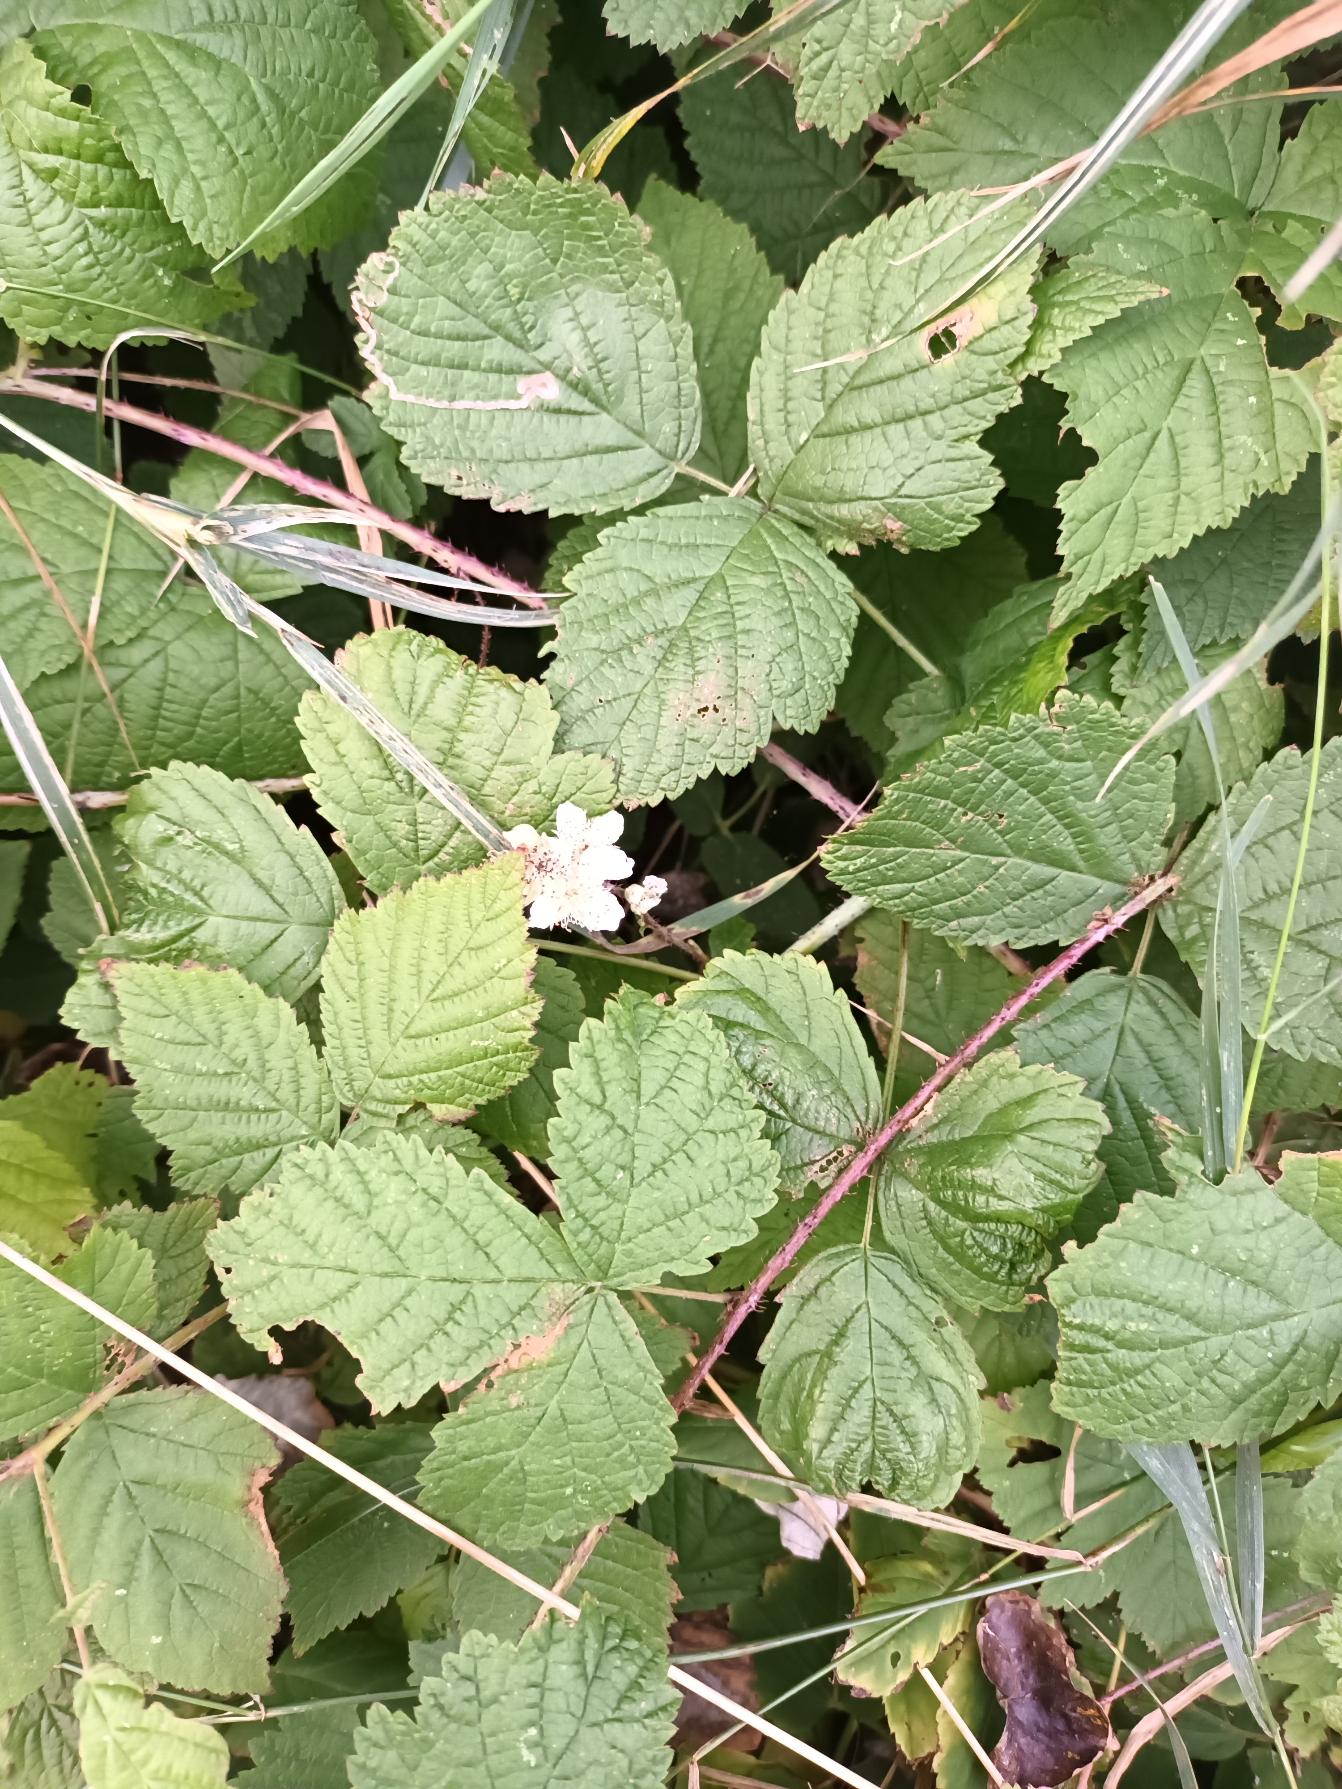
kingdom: Plantae
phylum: Tracheophyta
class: Magnoliopsida
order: Rosales
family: Rosaceae
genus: Rubus
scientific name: Rubus caesius
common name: Korbær
